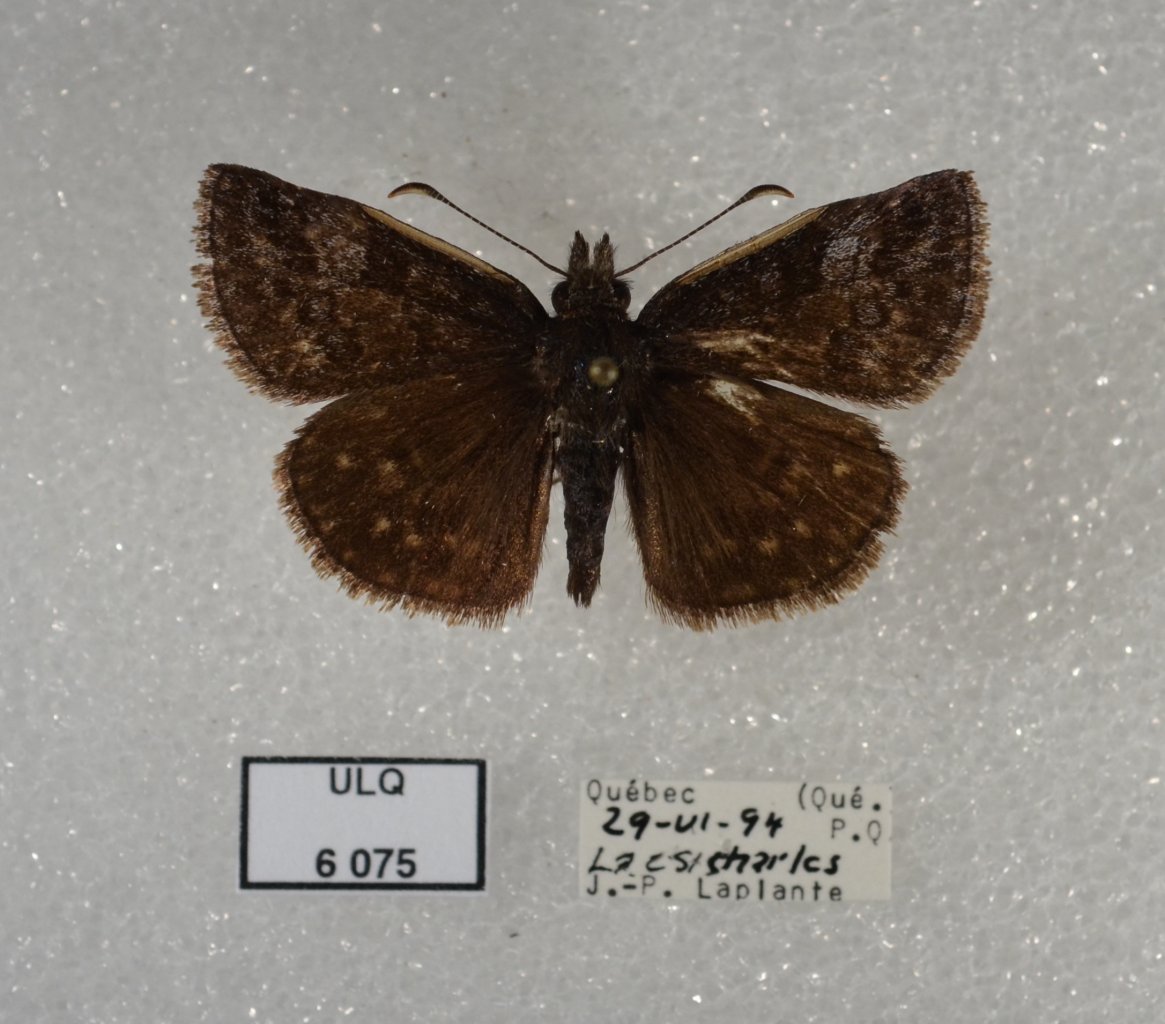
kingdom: Animalia
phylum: Arthropoda
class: Insecta
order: Lepidoptera
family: Hesperiidae
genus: Erynnis
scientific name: Erynnis icelus
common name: Dreamy Duskywing
